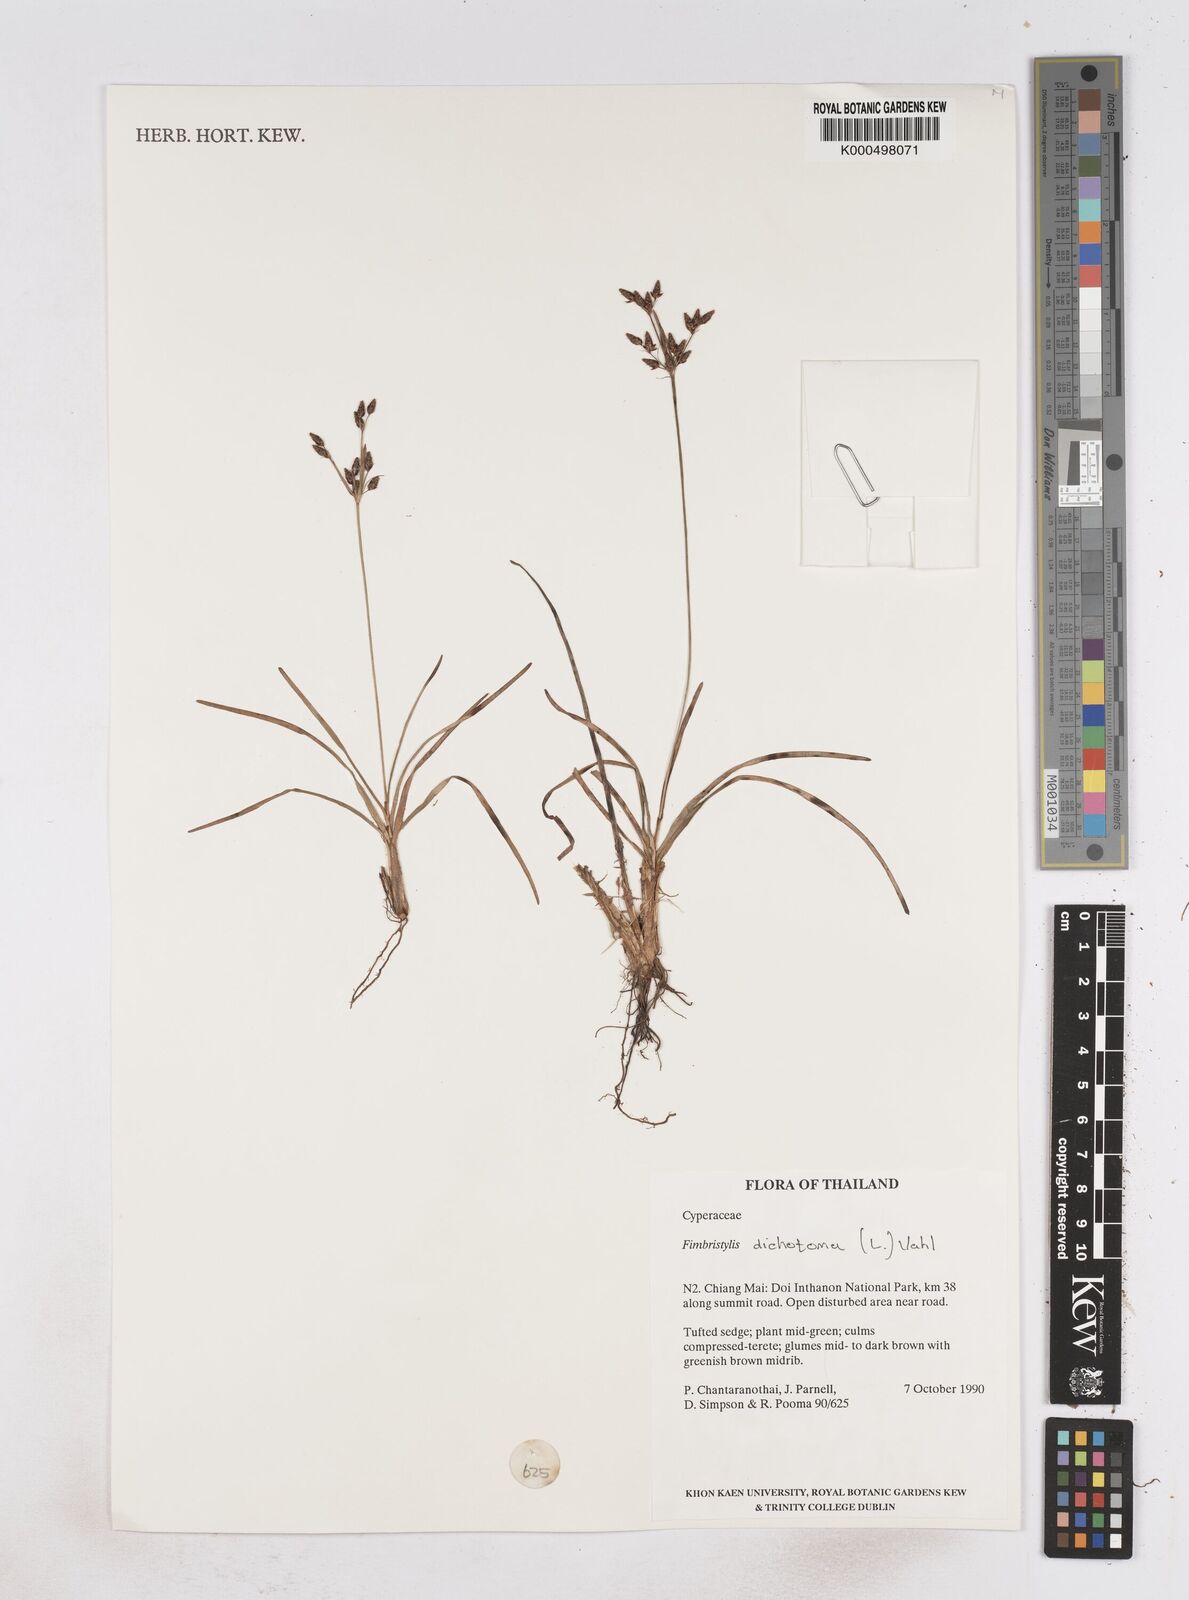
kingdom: Plantae
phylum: Tracheophyta
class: Liliopsida
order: Poales
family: Cyperaceae
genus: Fimbristylis
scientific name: Fimbristylis dichotoma
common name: Forked fimbry
